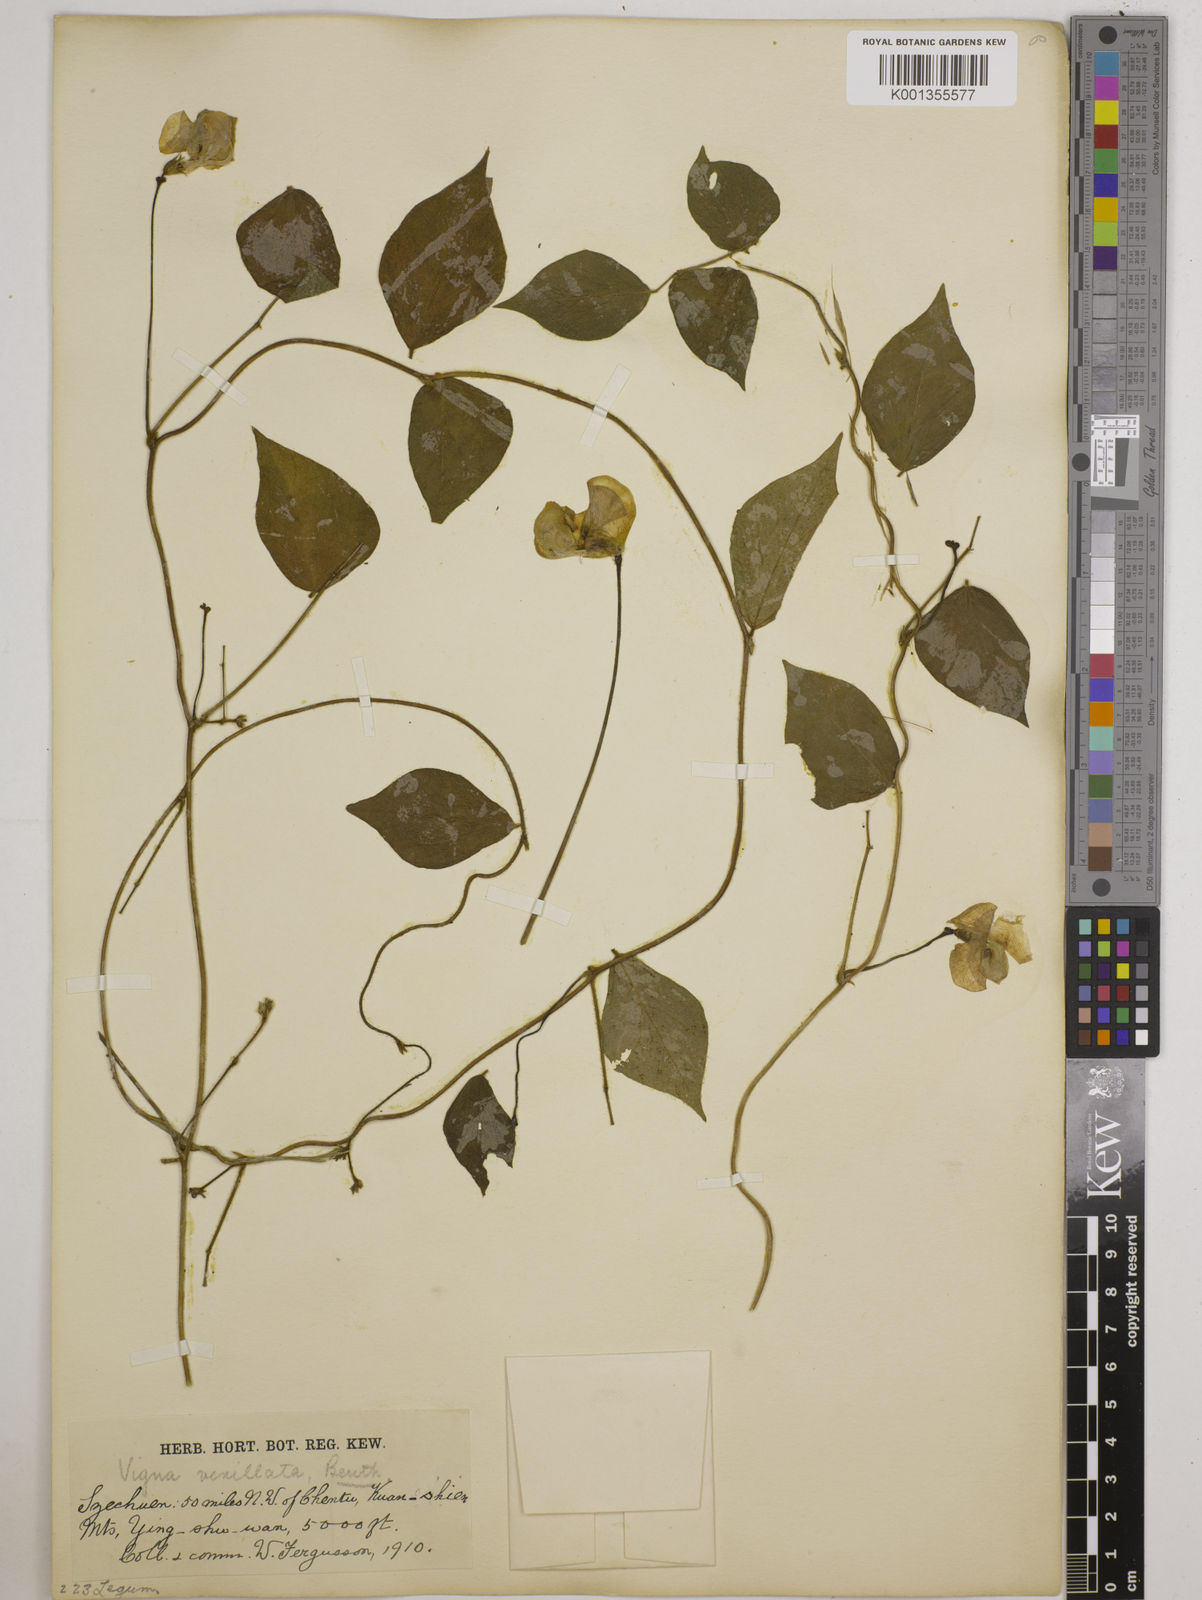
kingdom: Plantae
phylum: Tracheophyta
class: Magnoliopsida
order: Fabales
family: Fabaceae
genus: Vigna
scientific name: Vigna vexillata
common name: Zombi pea
